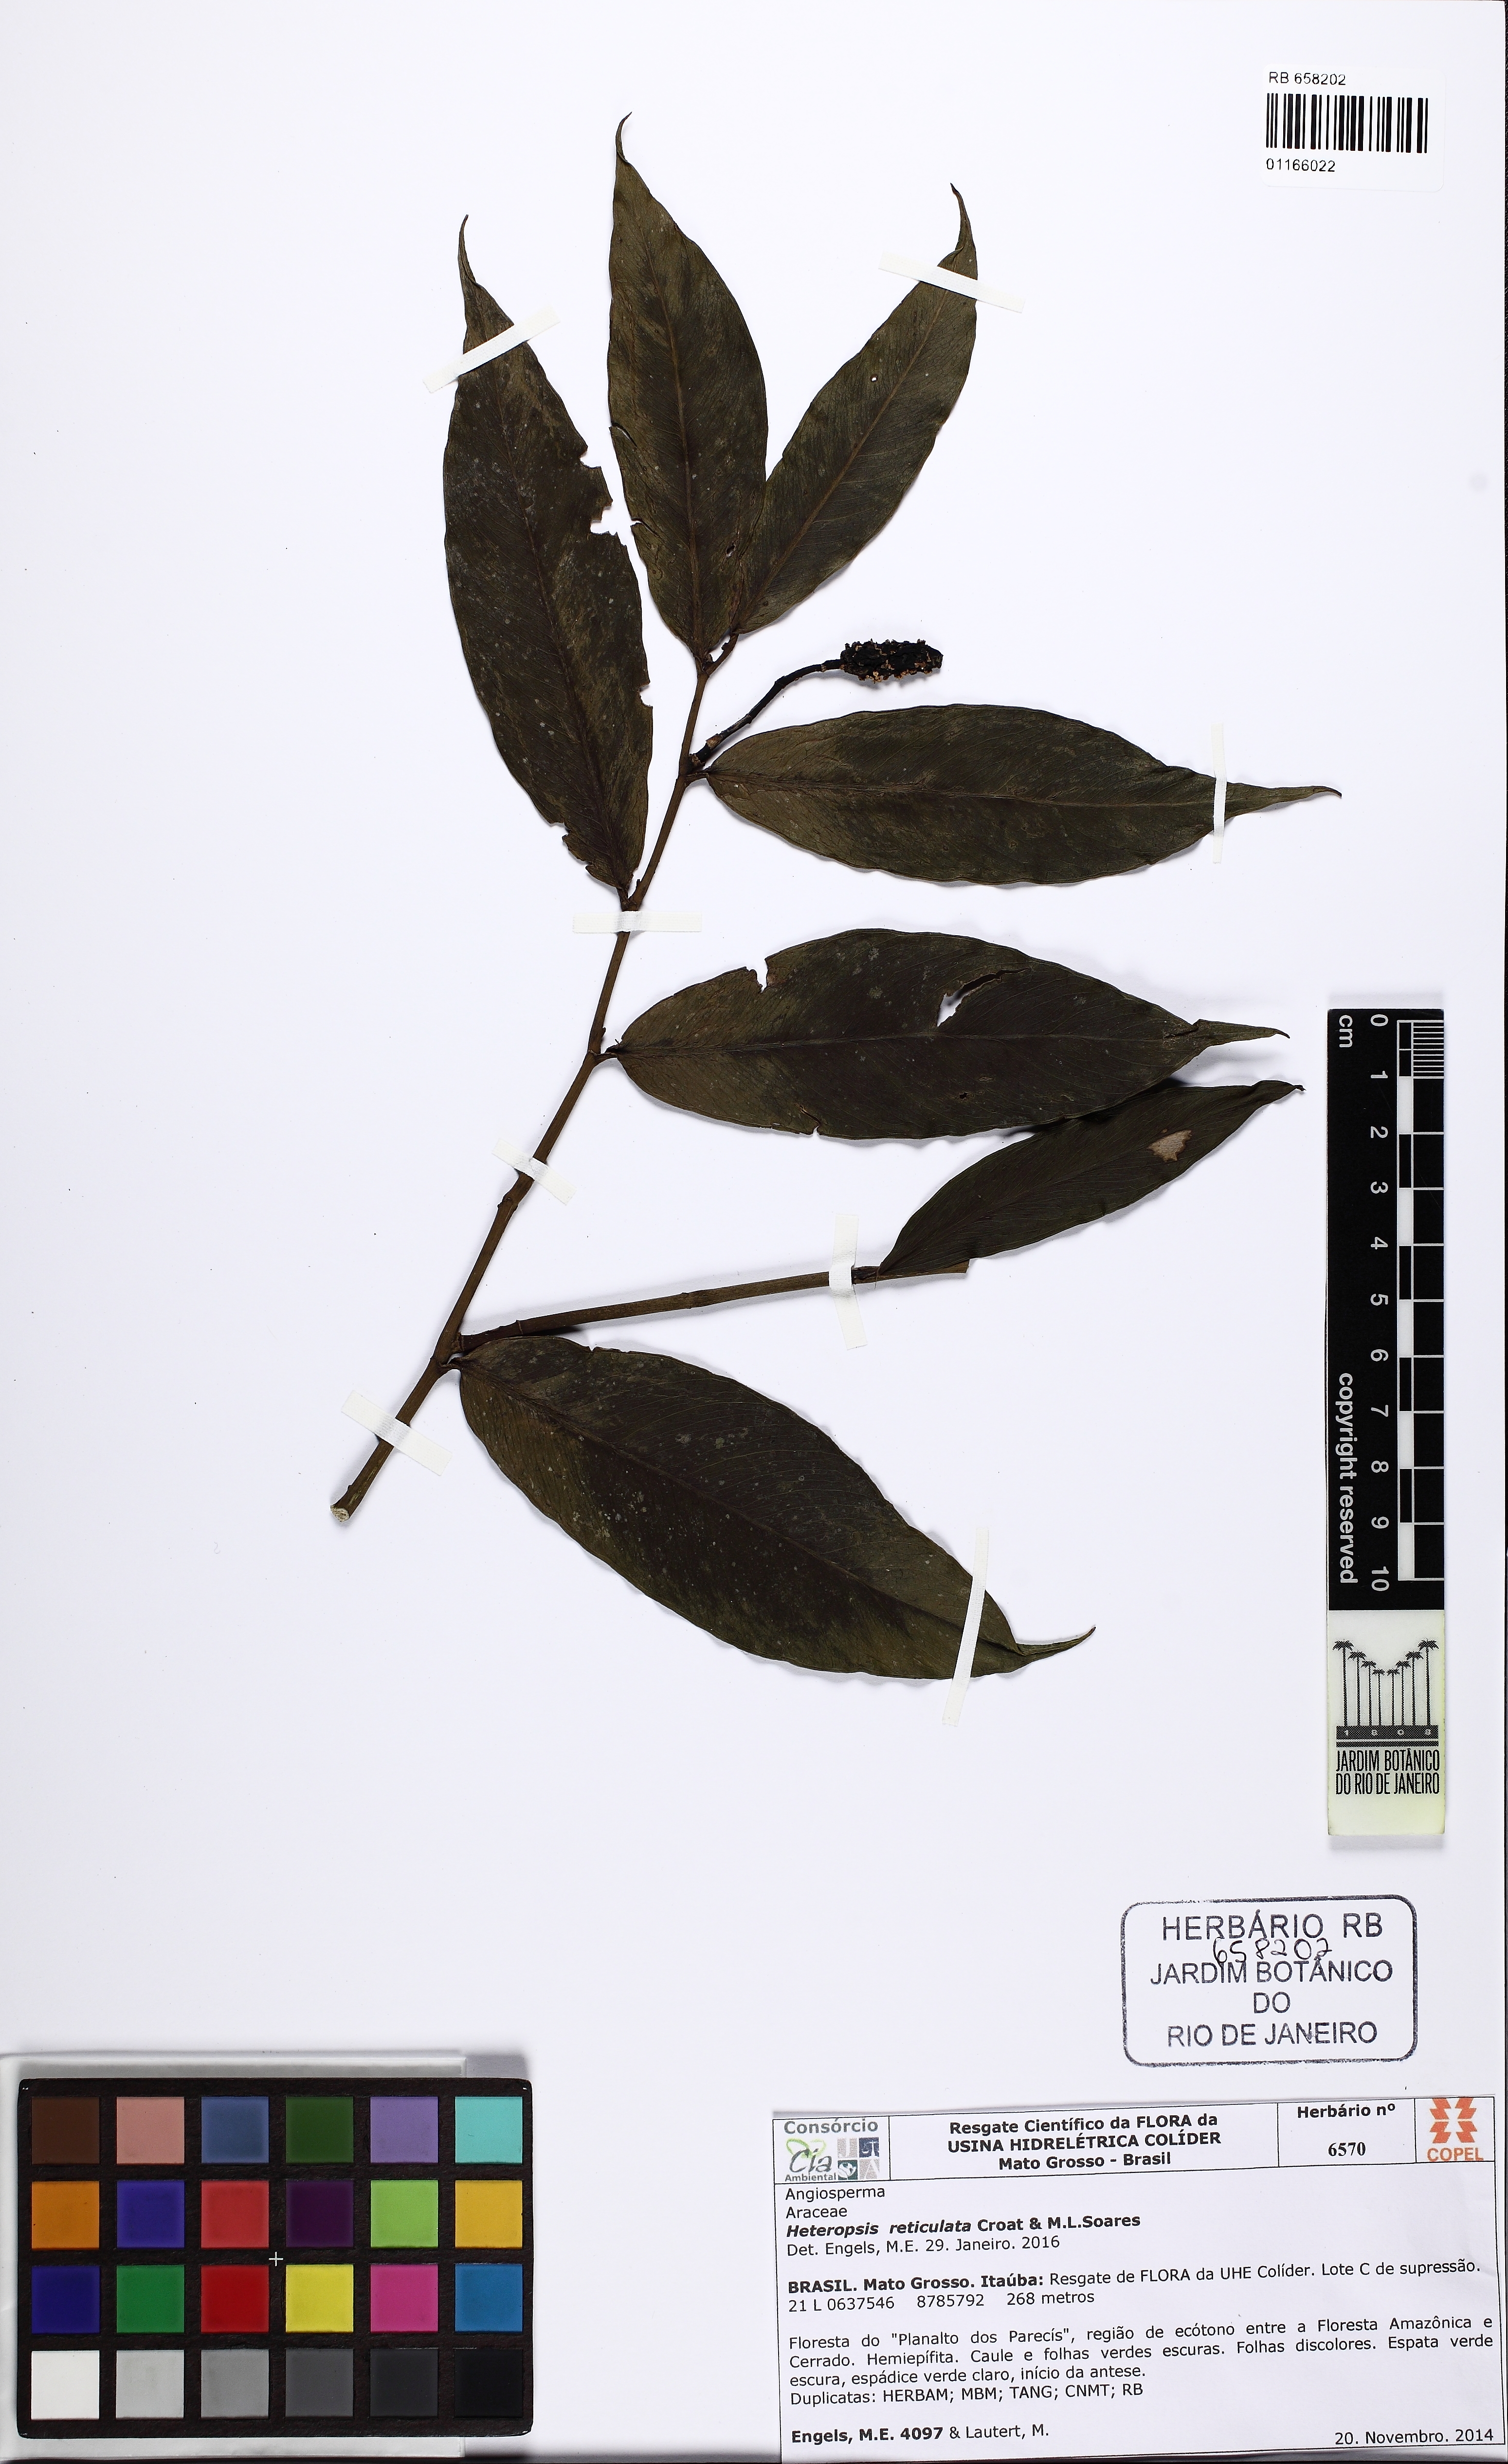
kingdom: Plantae
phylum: Tracheophyta
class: Liliopsida
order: Alismatales
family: Araceae
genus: Heteropsis
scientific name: Heteropsis reticulata
